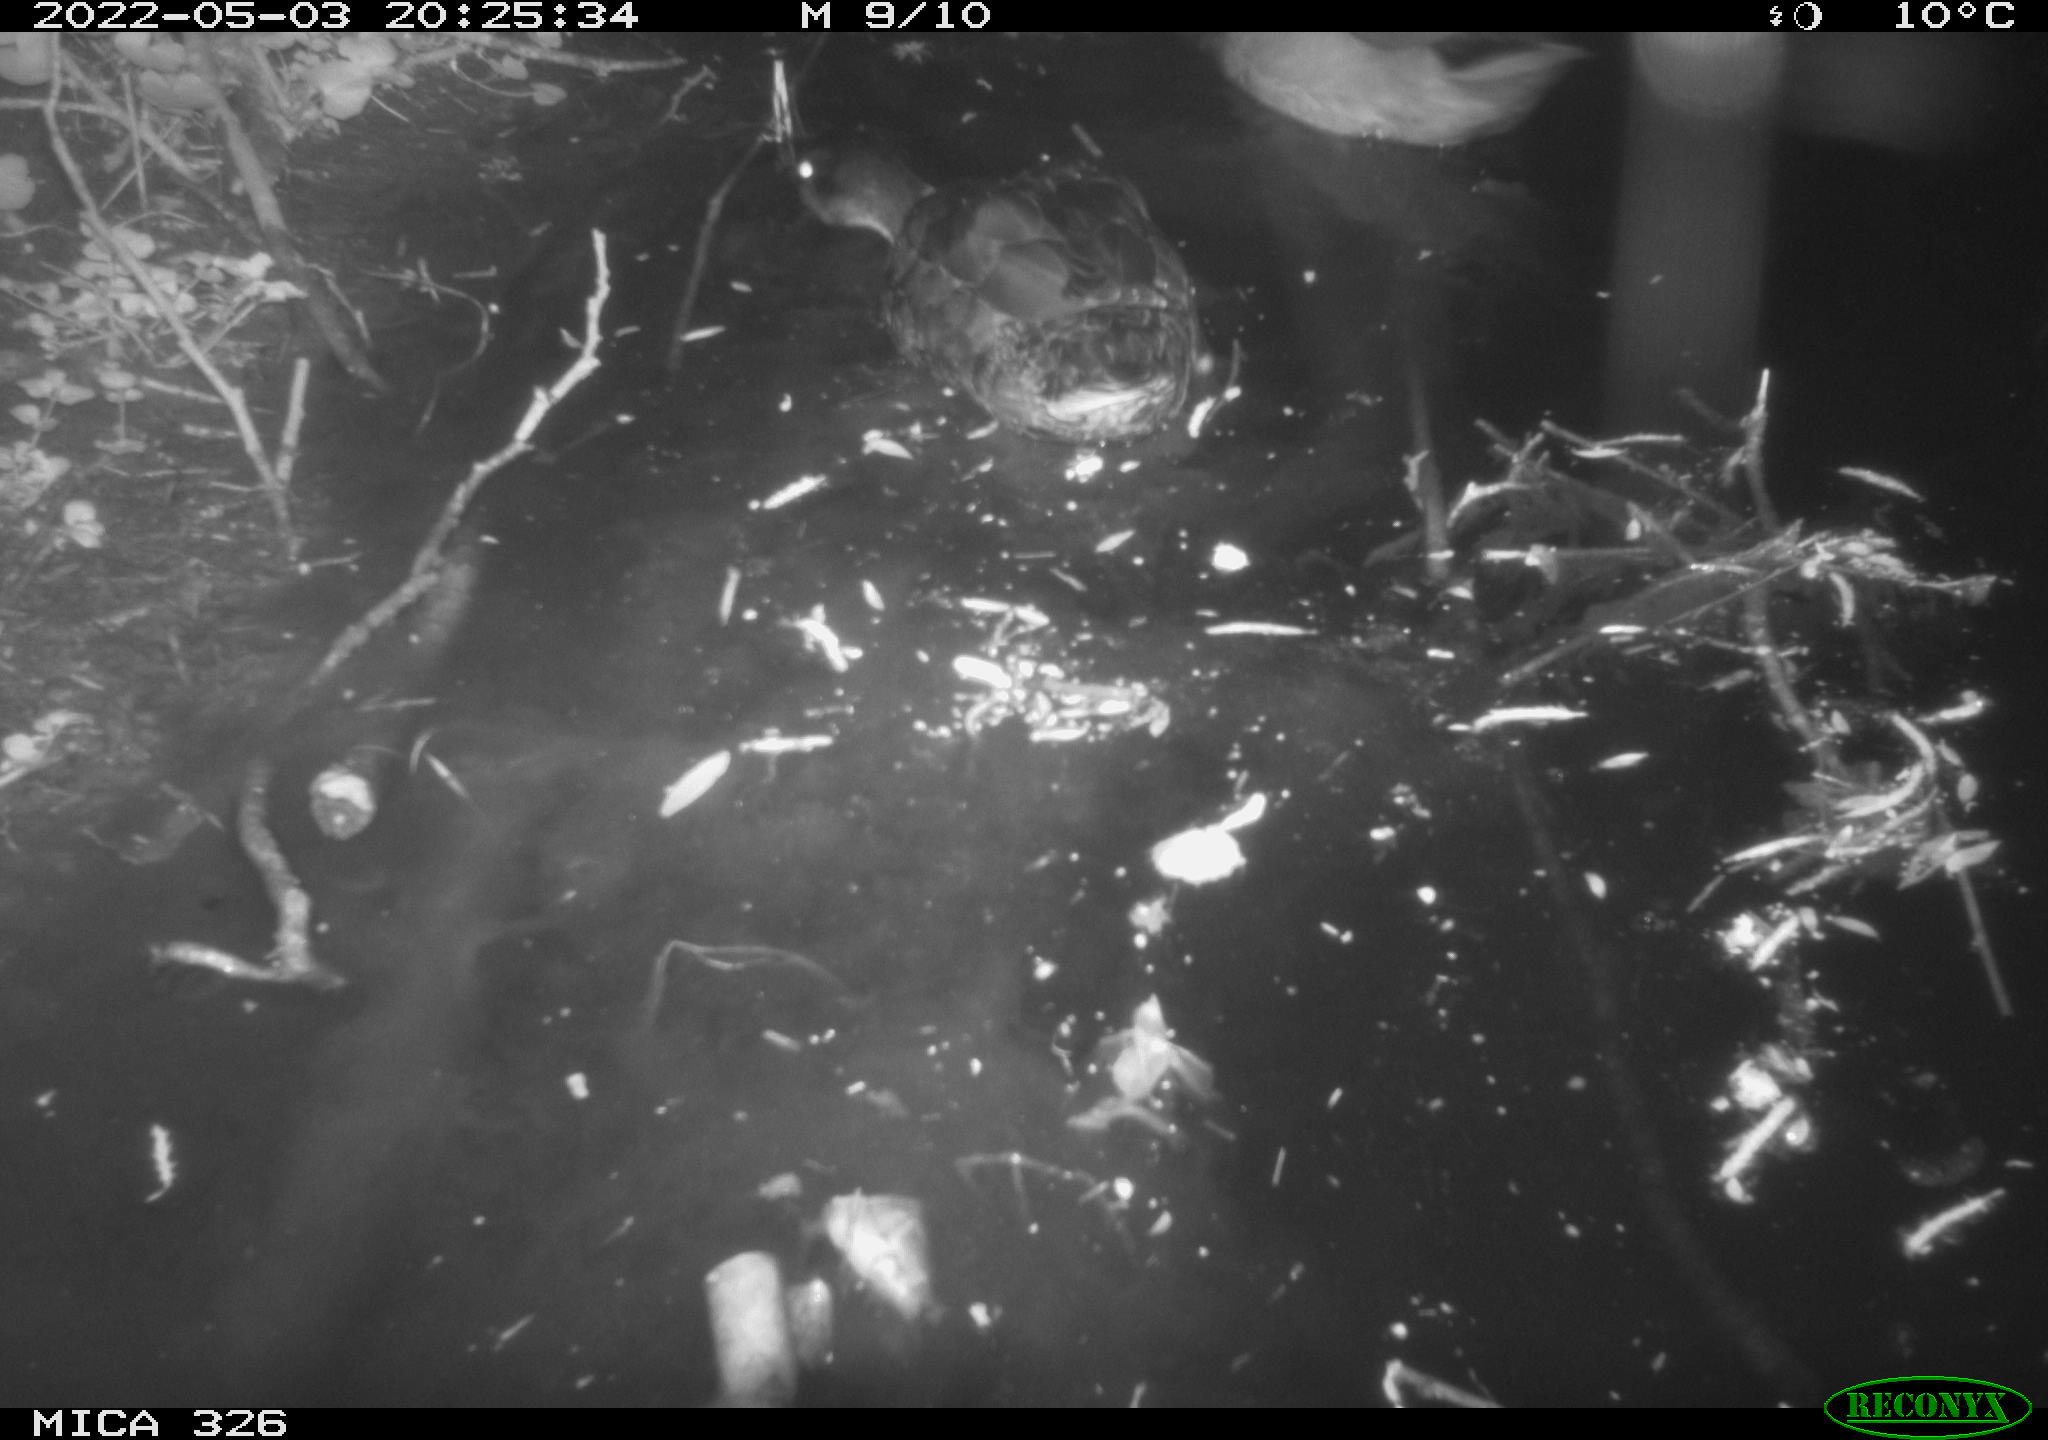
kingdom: Animalia
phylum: Chordata
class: Aves
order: Anseriformes
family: Anatidae
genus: Anas
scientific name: Anas
